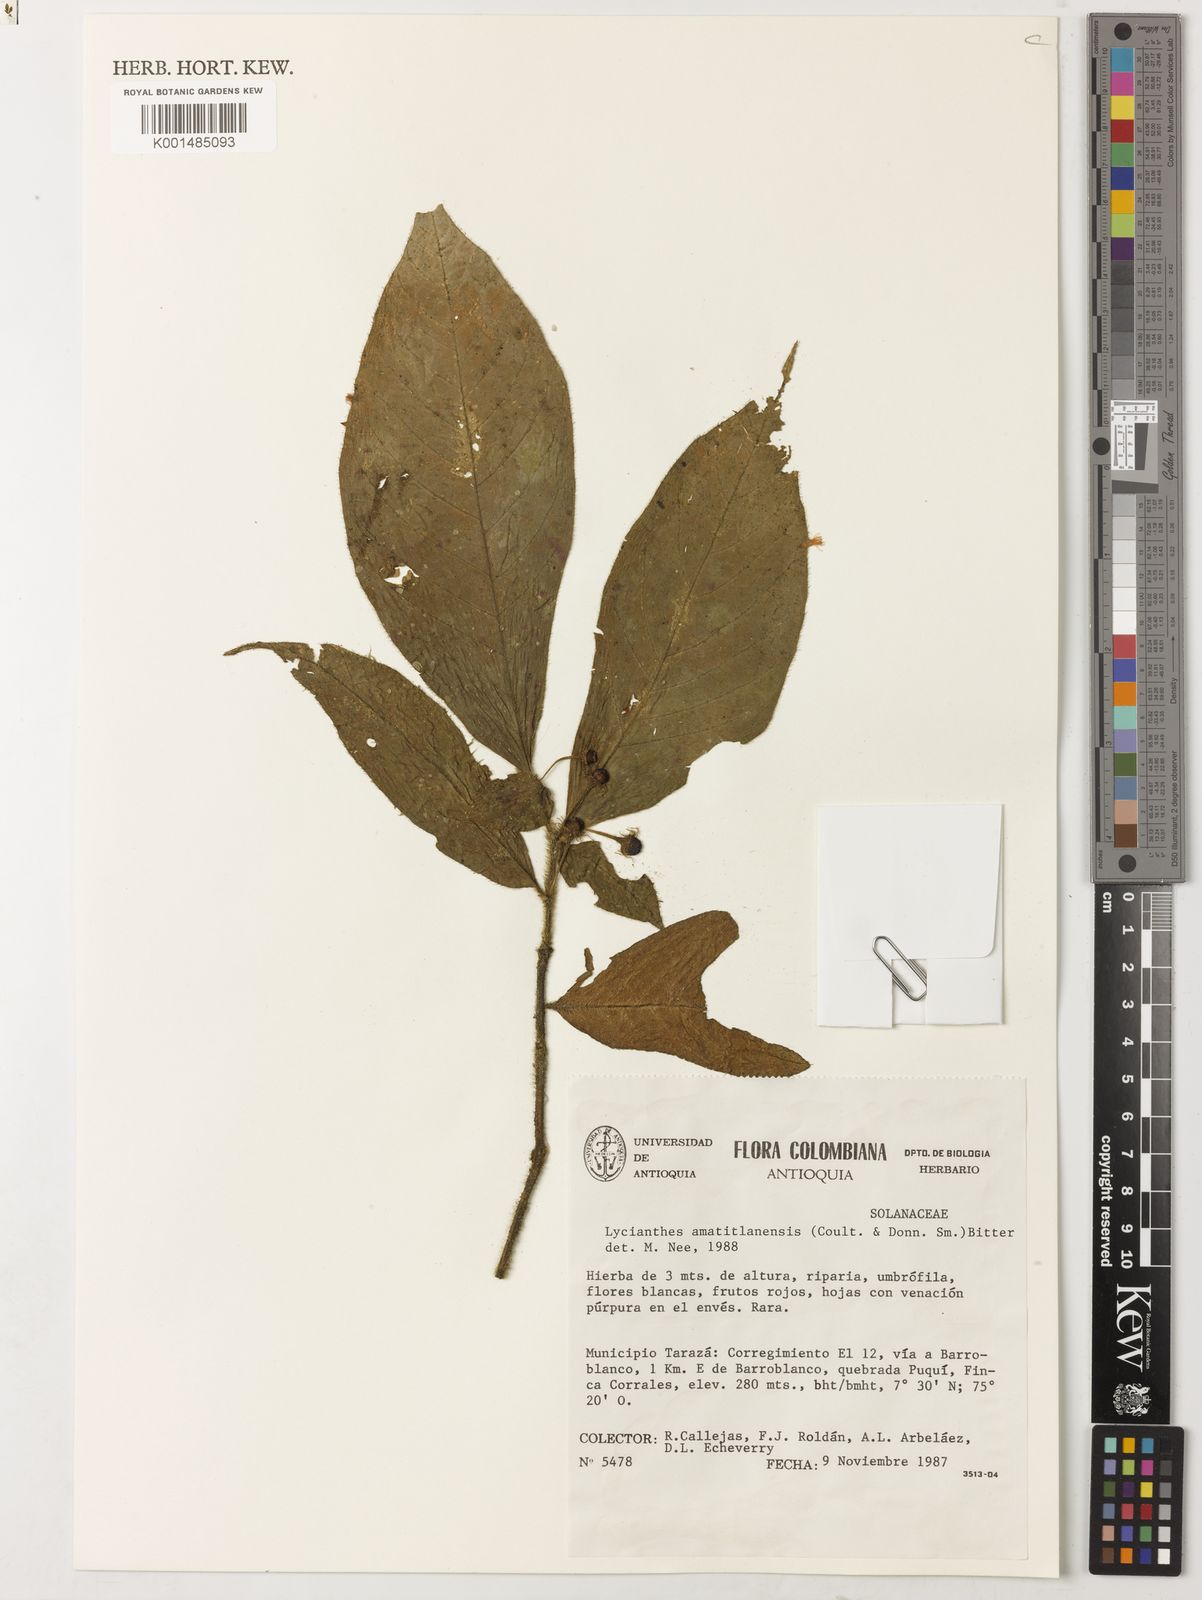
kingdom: Plantae
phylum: Tracheophyta
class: Magnoliopsida
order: Solanales
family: Solanaceae
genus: Lycianthes
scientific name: Lycianthes amatitlanensis
